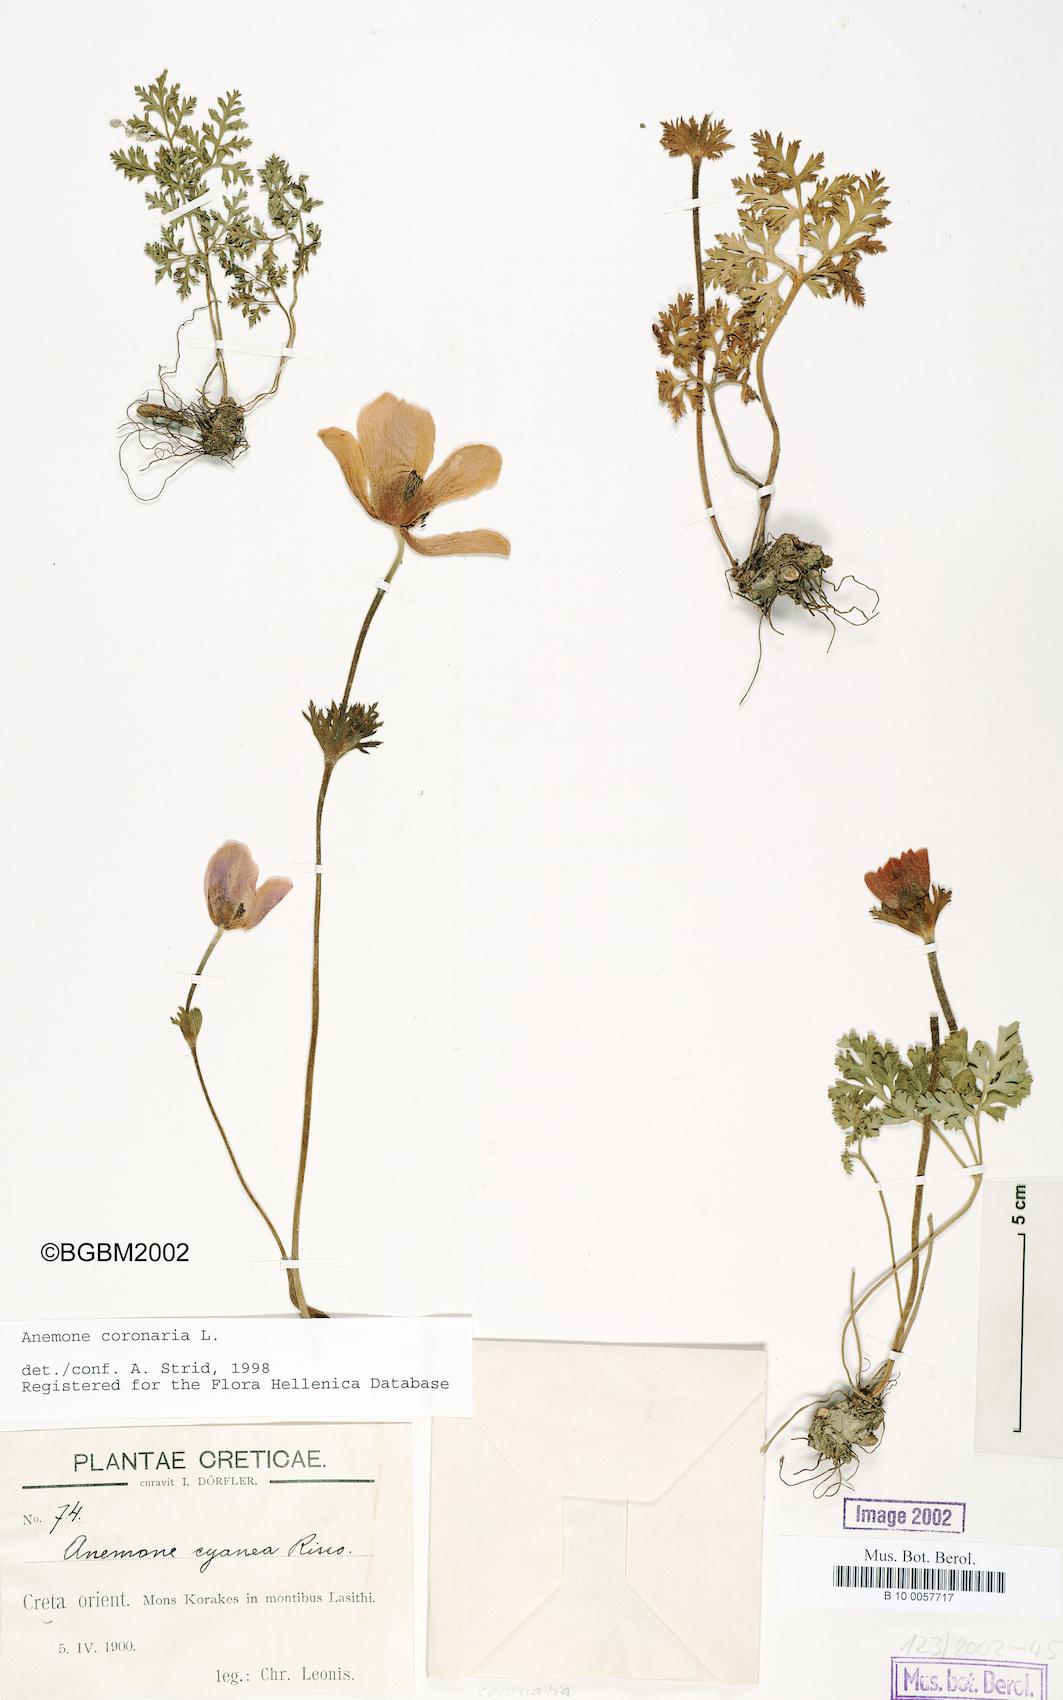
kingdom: Plantae
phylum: Tracheophyta
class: Magnoliopsida
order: Ranunculales
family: Ranunculaceae
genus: Anemone
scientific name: Anemone coronaria
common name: Poppy anemone
